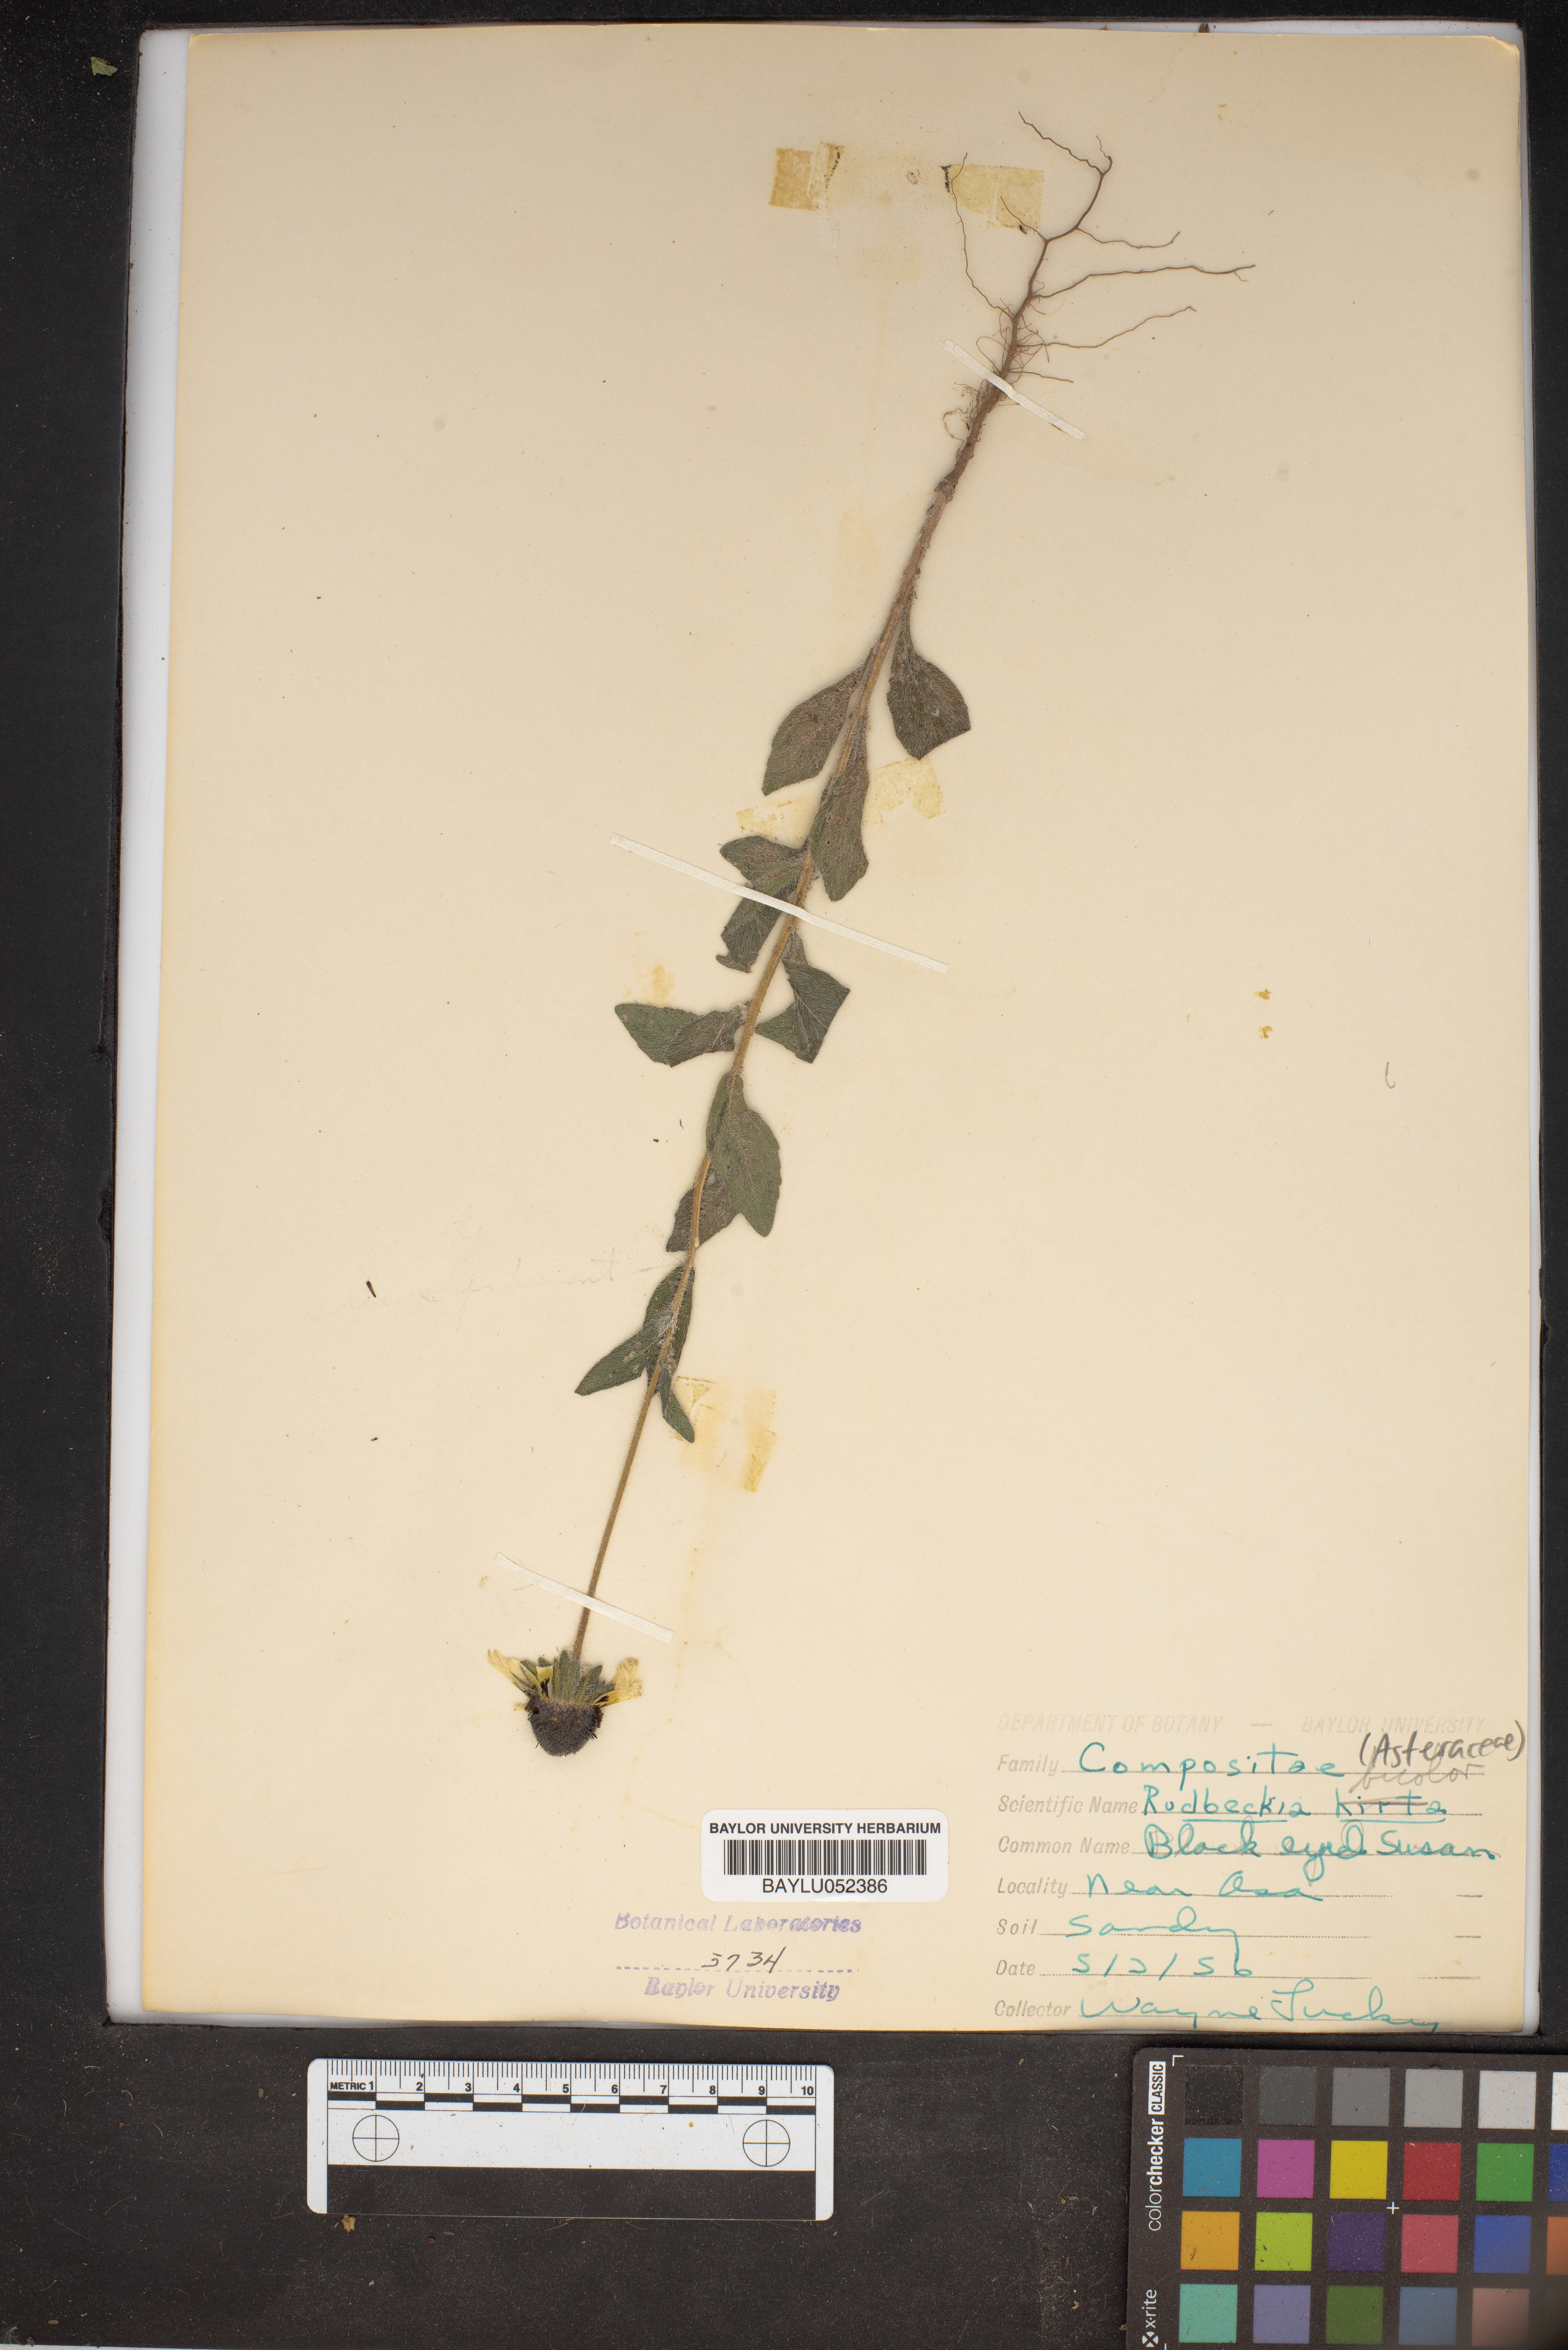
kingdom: Plantae
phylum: Tracheophyta
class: Magnoliopsida
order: Asterales
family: Asteraceae
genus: Rudbeckia
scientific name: Rudbeckia triloba
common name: Thin-leaved coneflower
